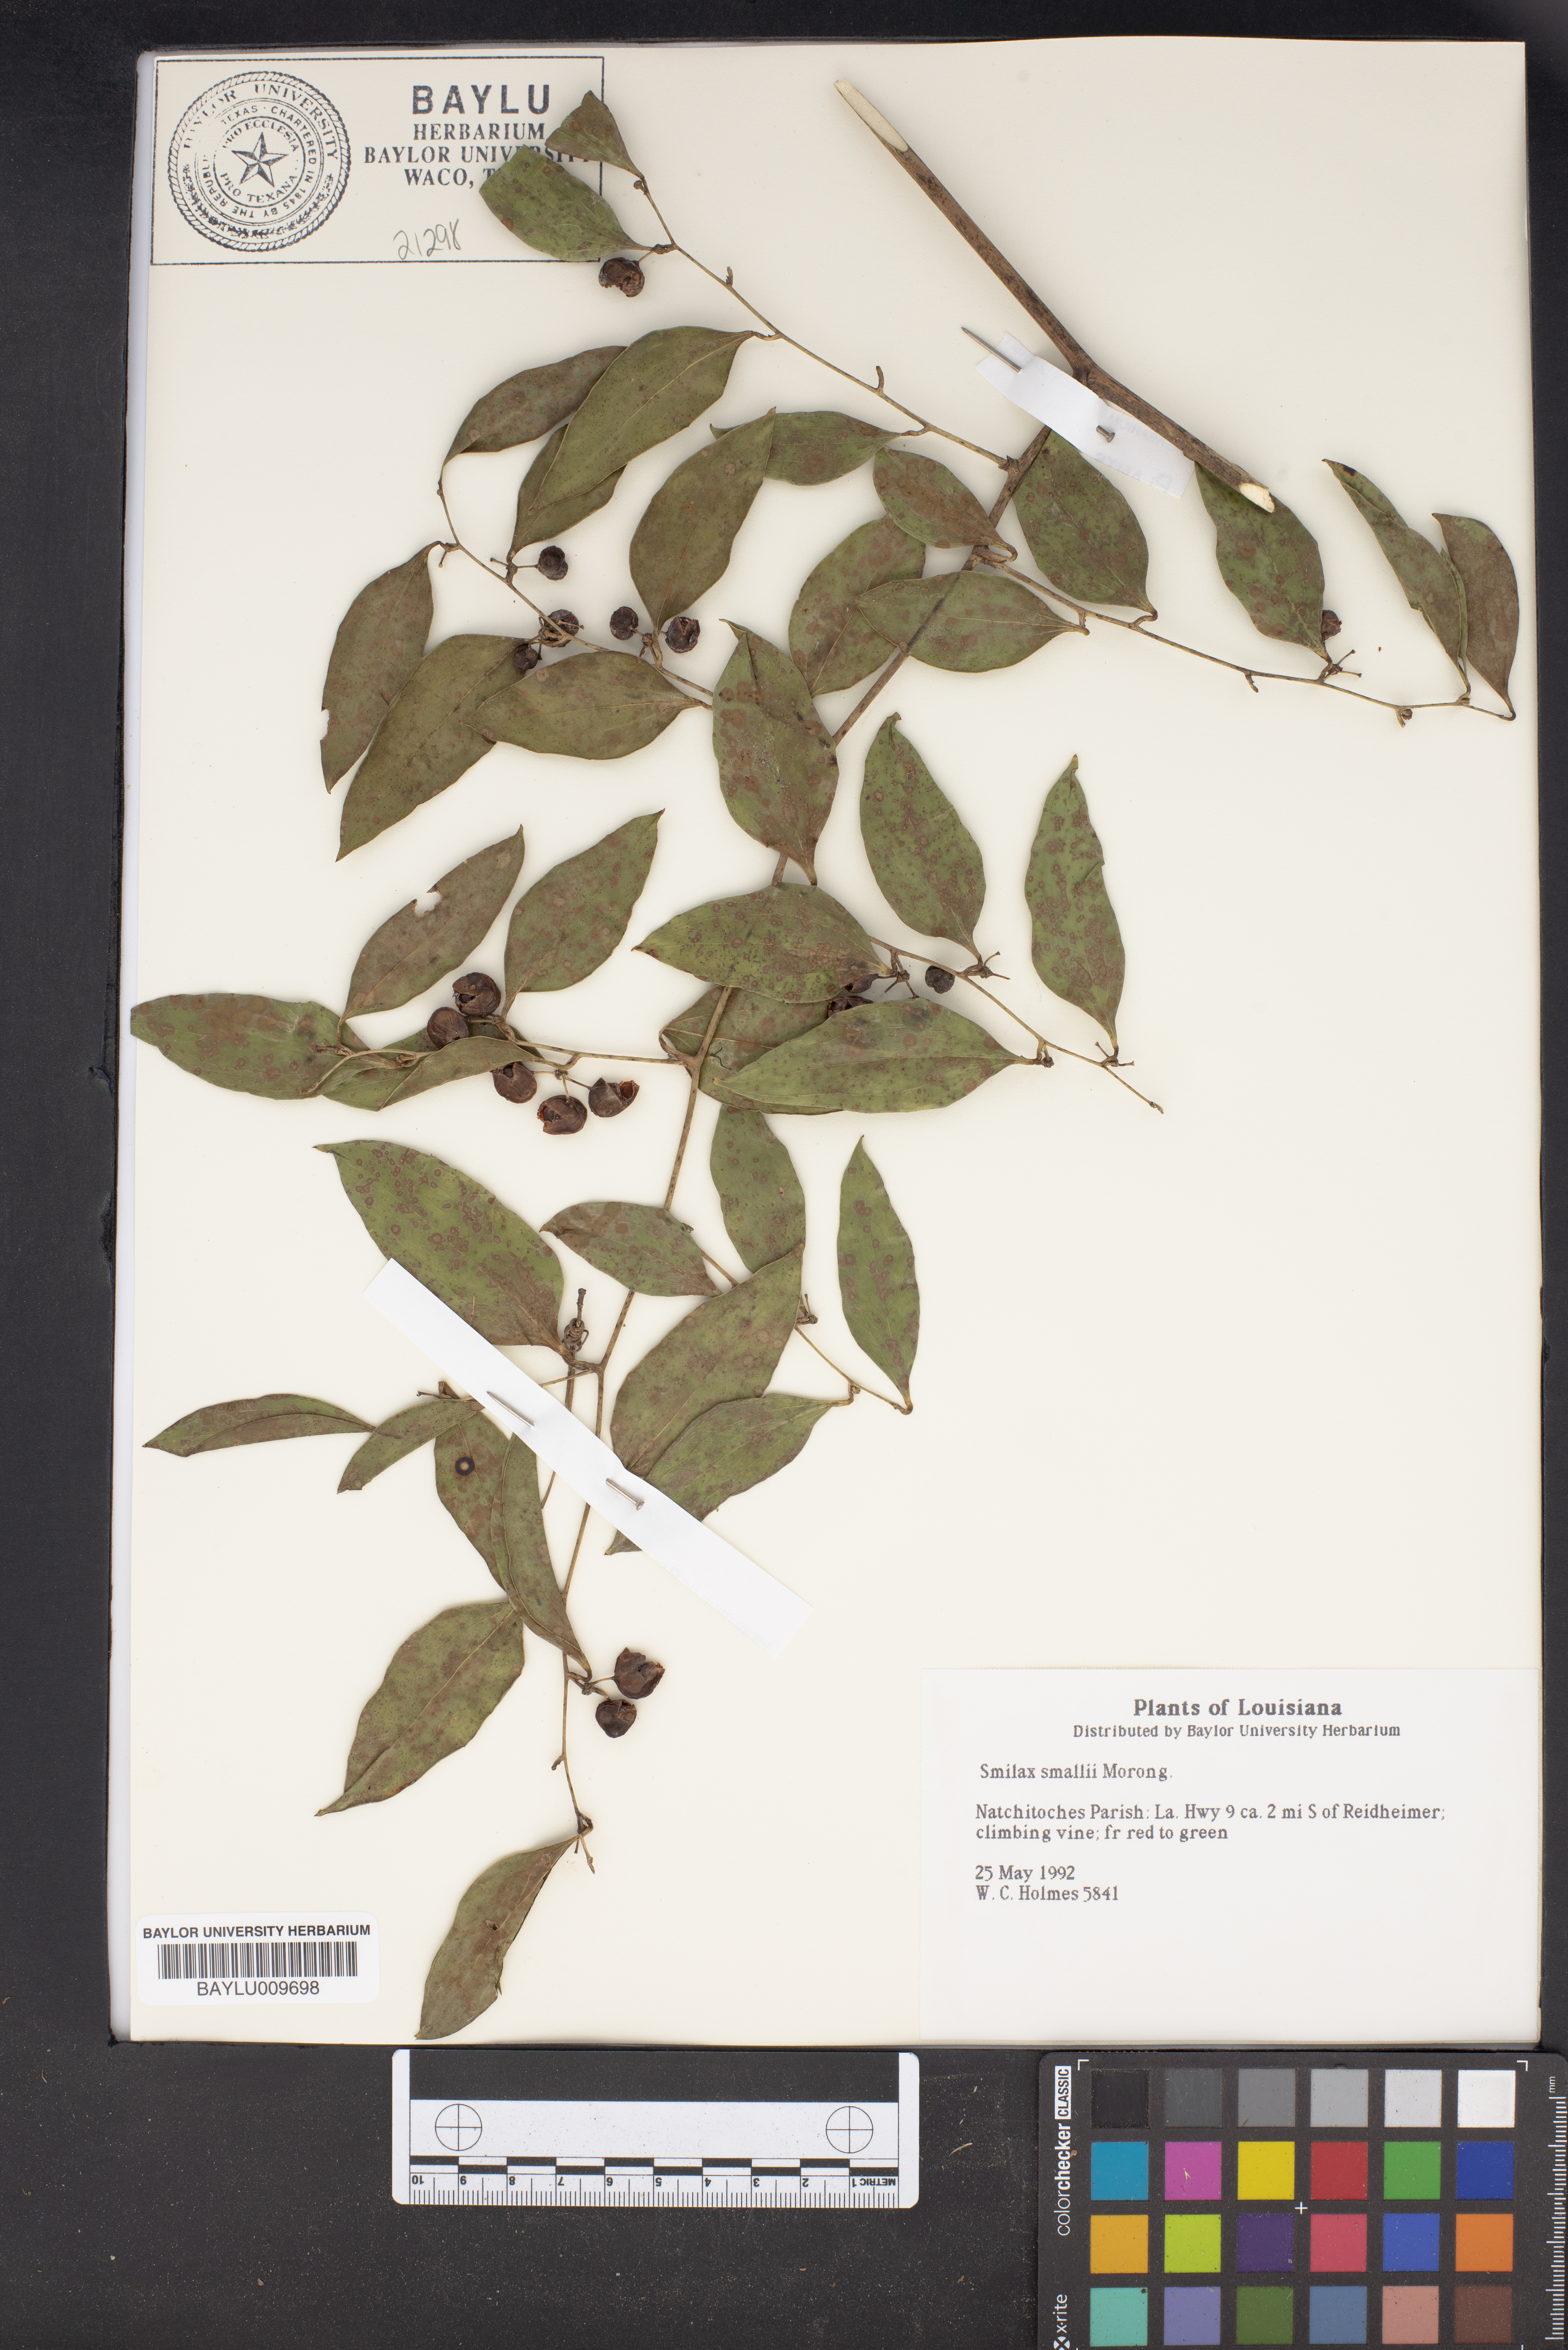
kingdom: Plantae
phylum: Tracheophyta
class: Liliopsida
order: Liliales
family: Smilacaceae
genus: Smilax
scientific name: Smilax maritima
